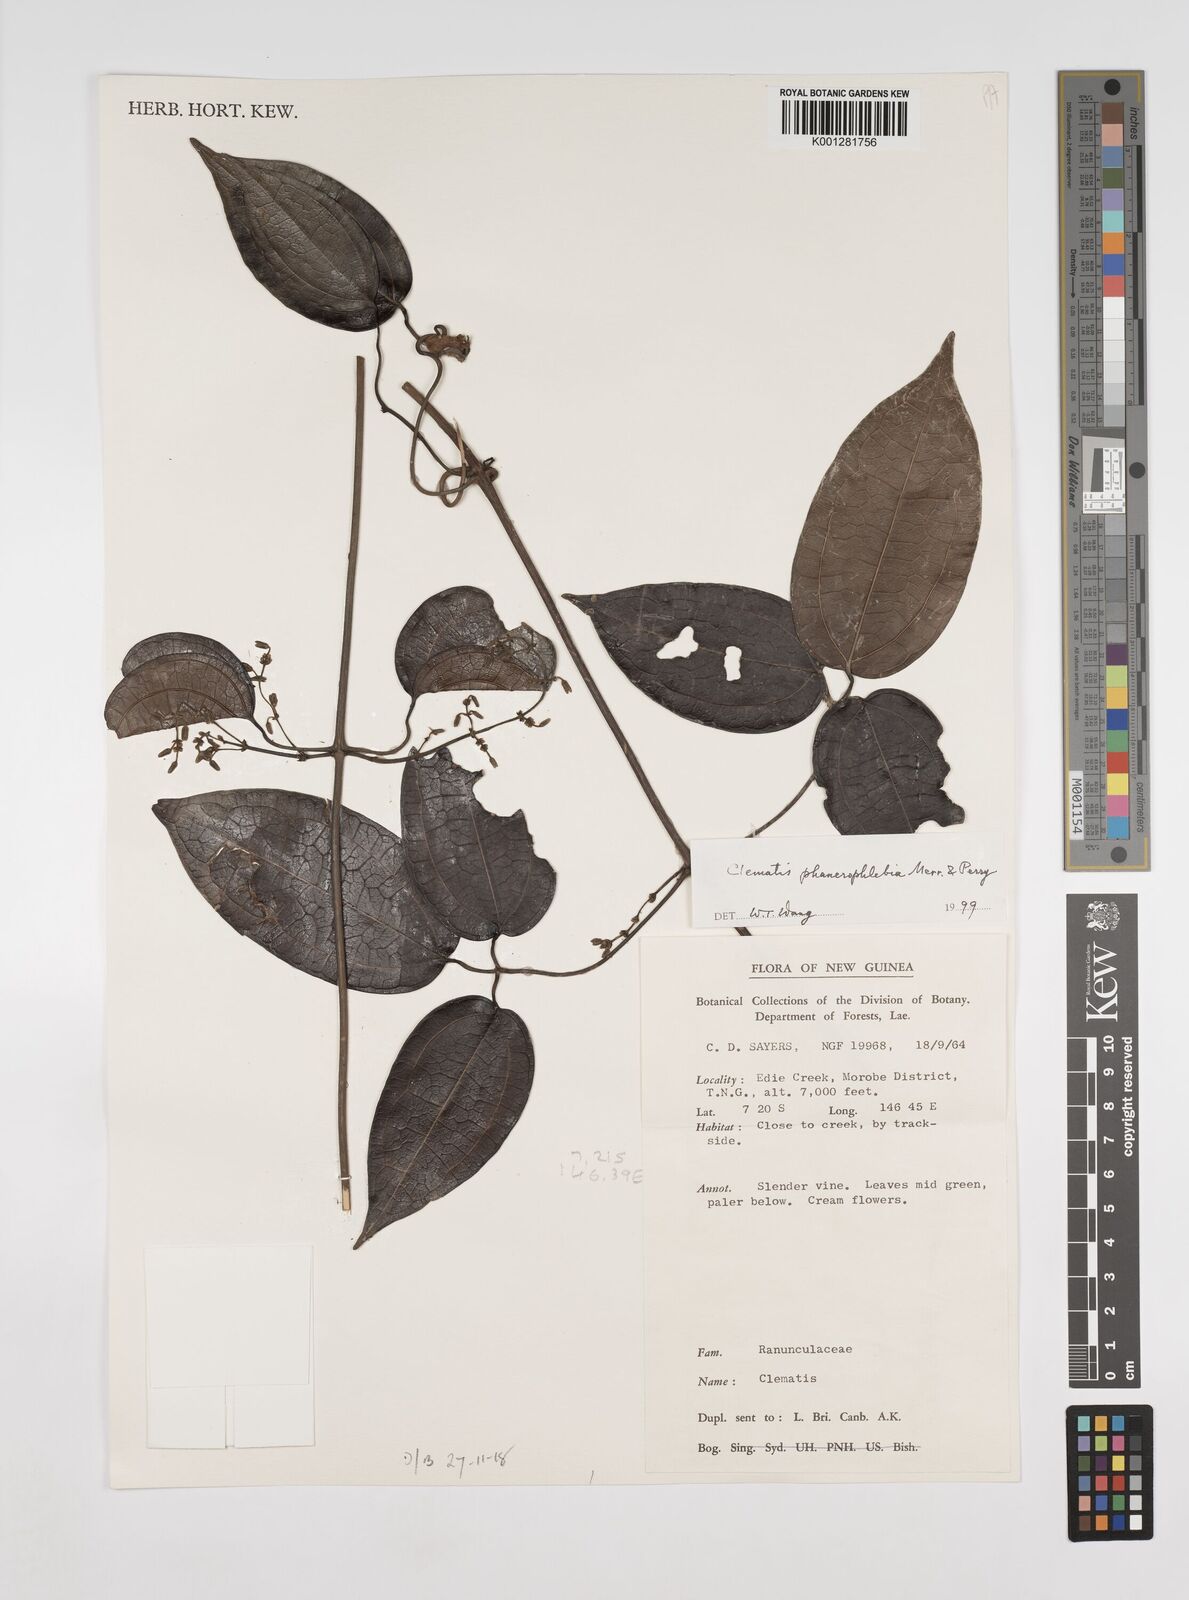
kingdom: Plantae
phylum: Tracheophyta
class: Magnoliopsida
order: Ranunculales
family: Ranunculaceae
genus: Clematis
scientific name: Clematis phanerophlebia
